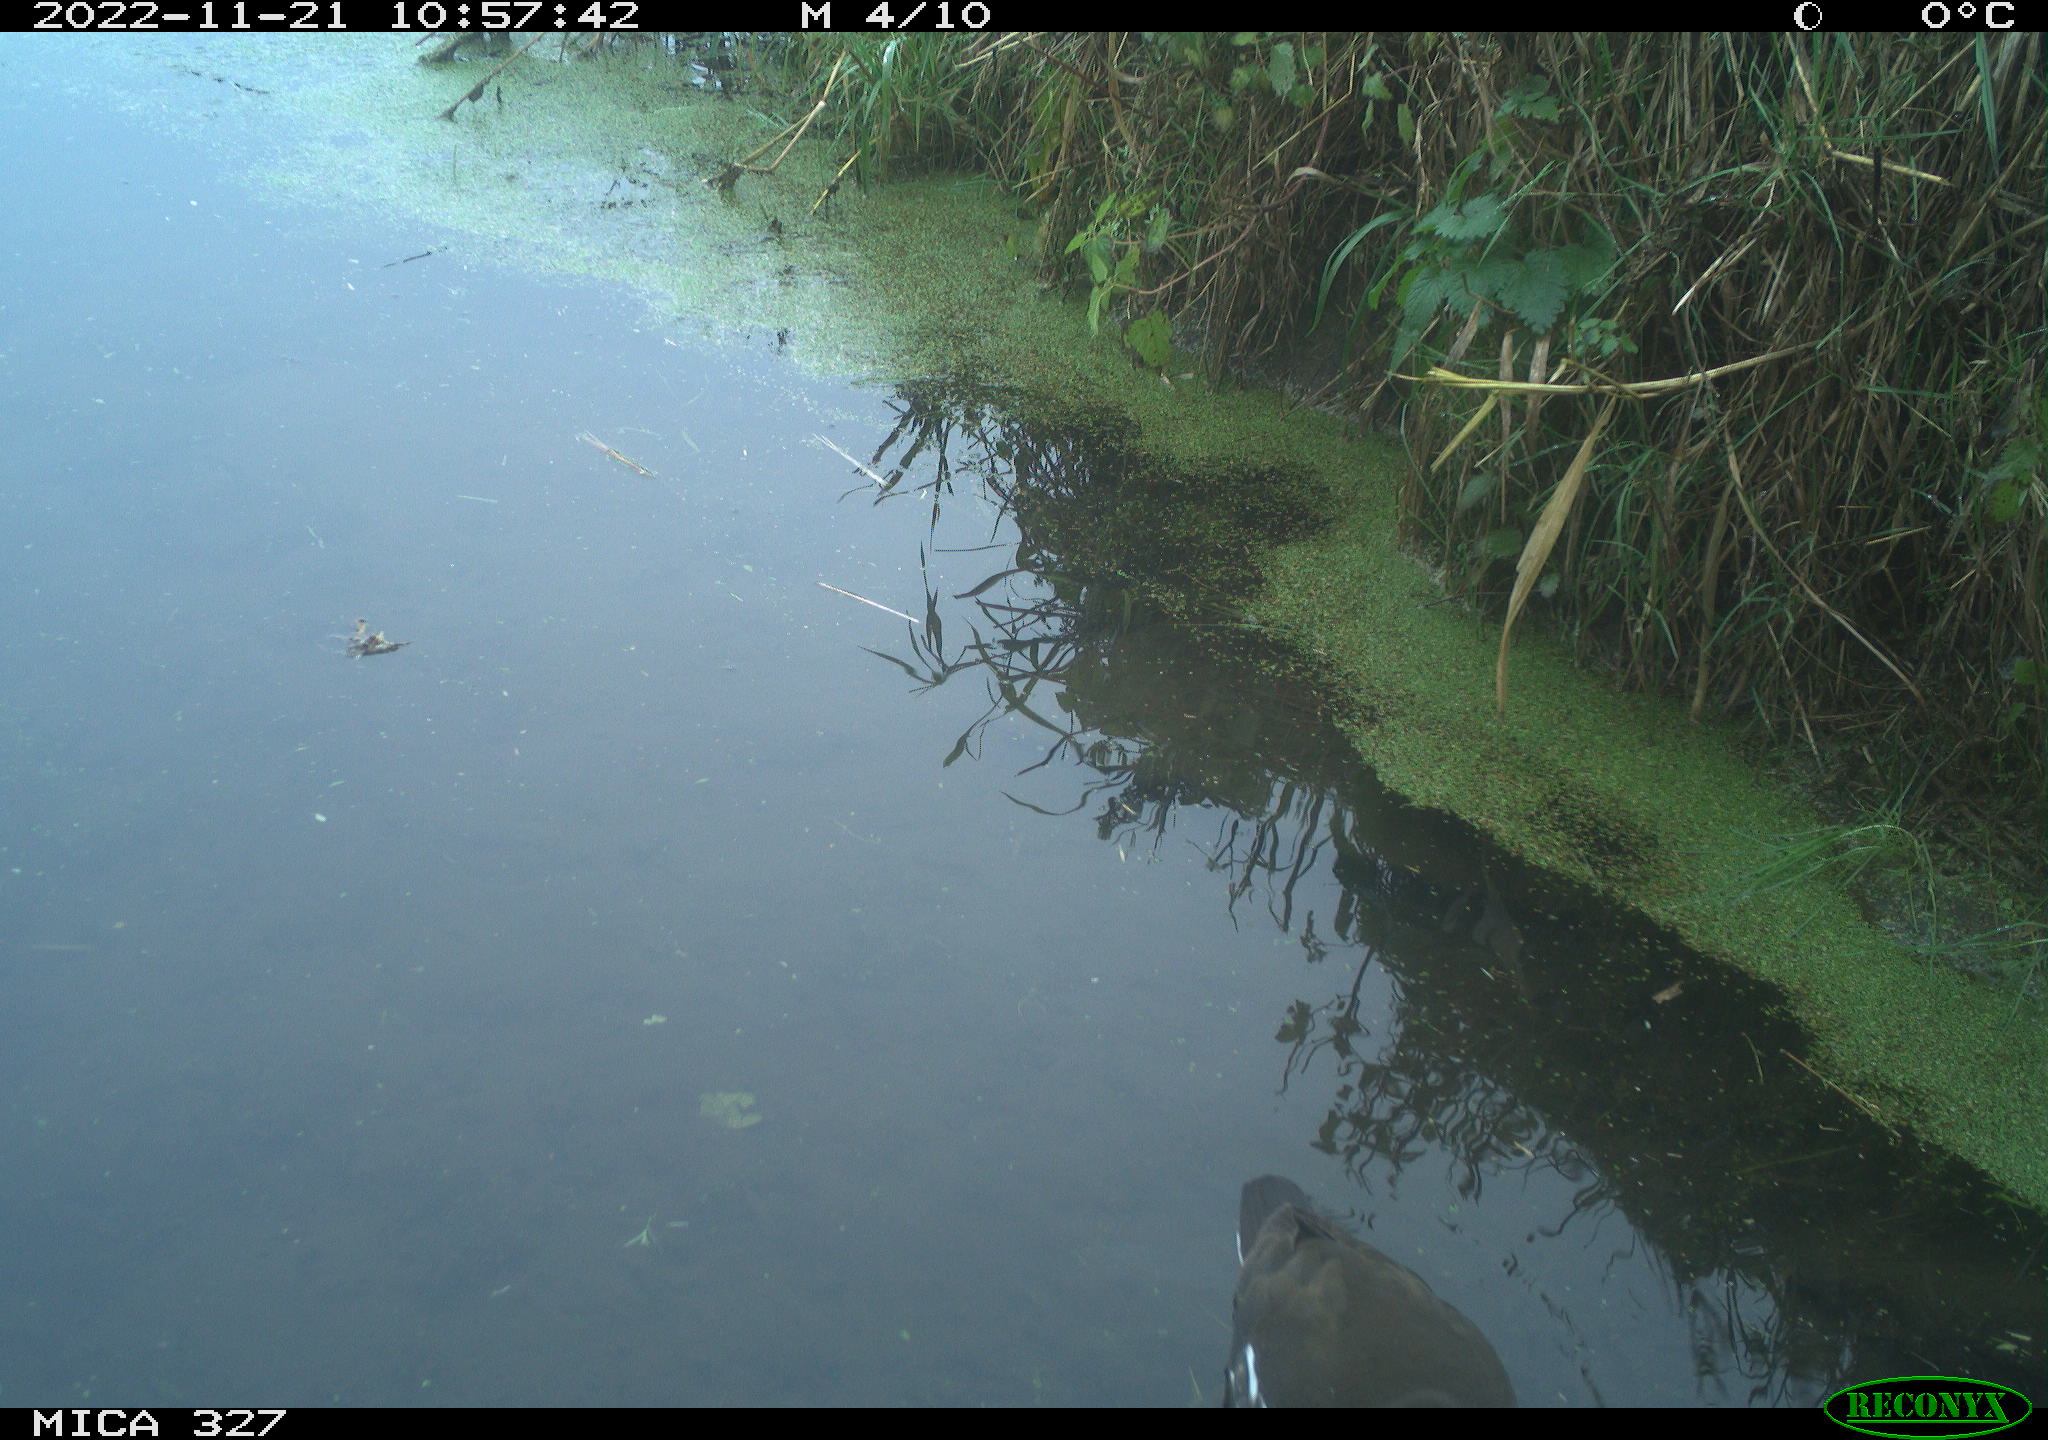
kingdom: Animalia
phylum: Chordata
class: Aves
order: Gruiformes
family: Rallidae
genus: Gallinula
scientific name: Gallinula chloropus
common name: Common moorhen
